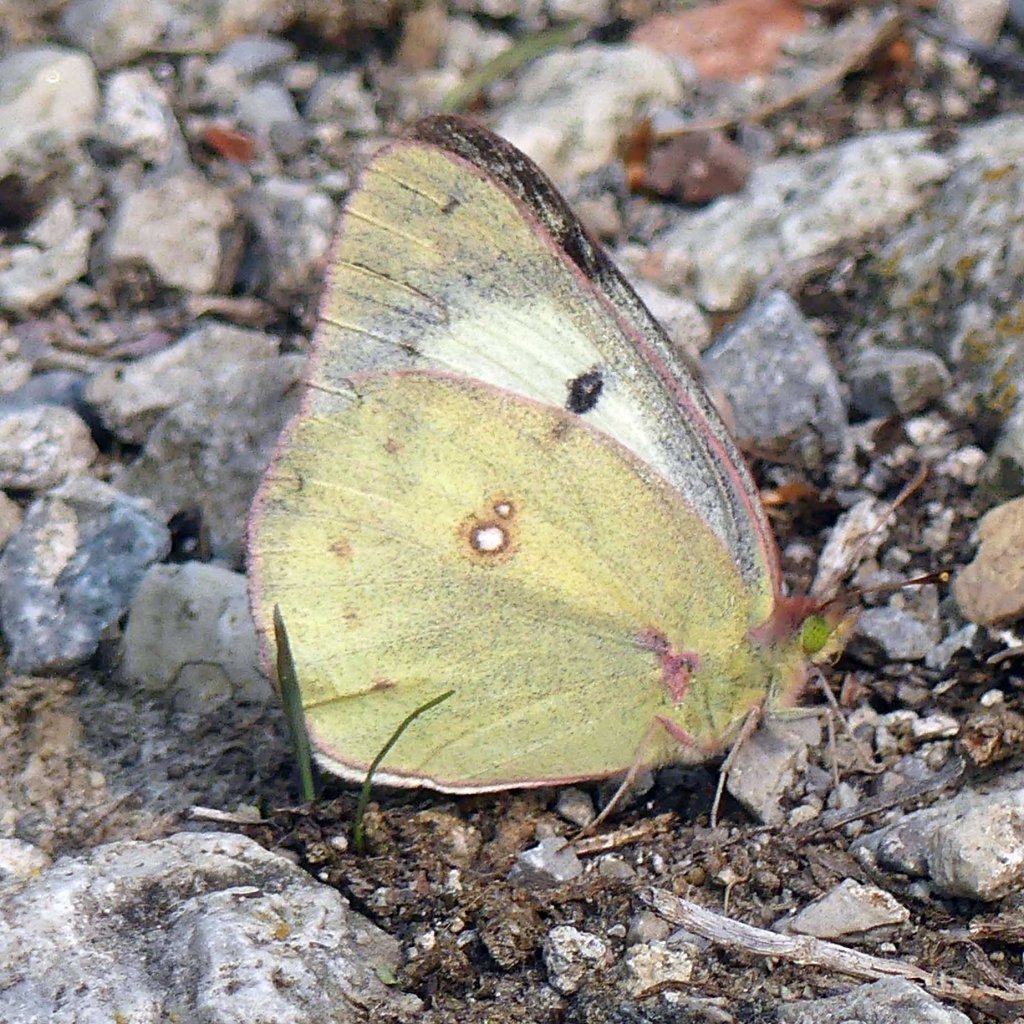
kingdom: Animalia
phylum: Arthropoda
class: Insecta
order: Lepidoptera
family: Pieridae
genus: Colias
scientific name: Colias philodice
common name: Clouded Sulphur
